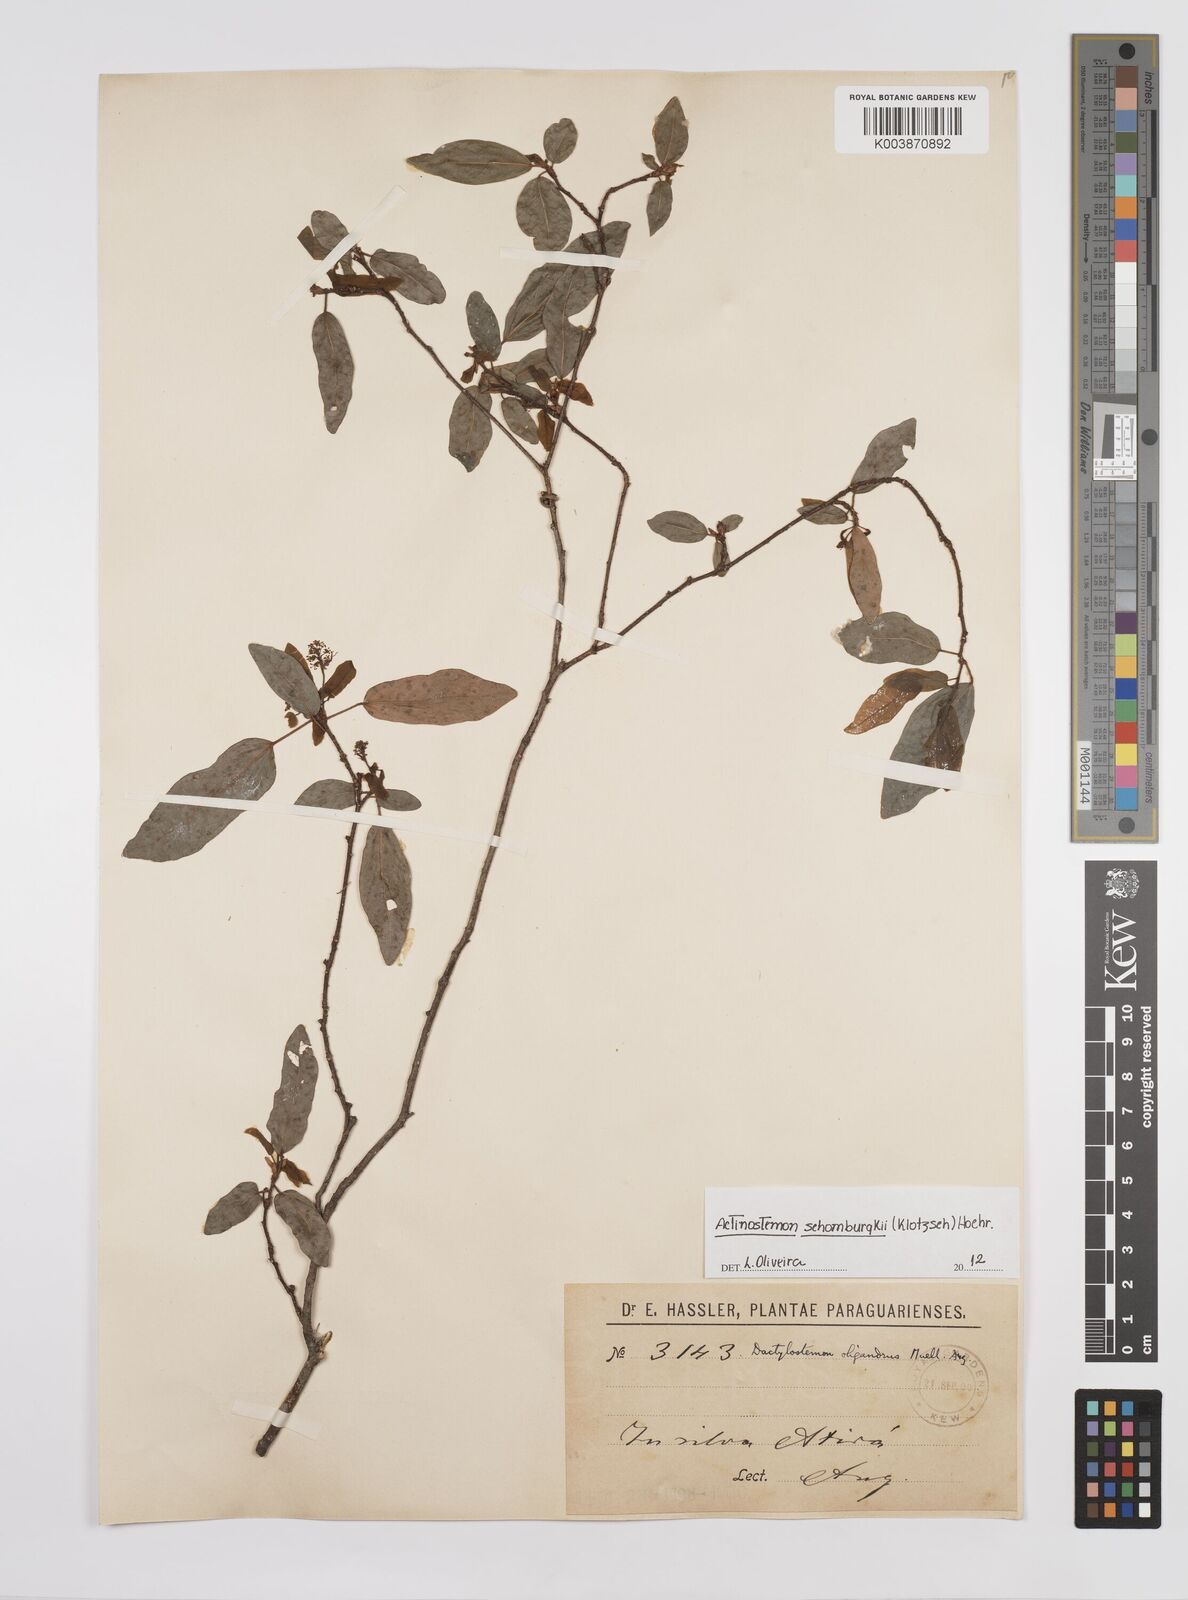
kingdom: Plantae
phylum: Tracheophyta
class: Magnoliopsida
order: Malpighiales
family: Euphorbiaceae
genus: Actinostemon
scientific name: Actinostemon schomburgkii
